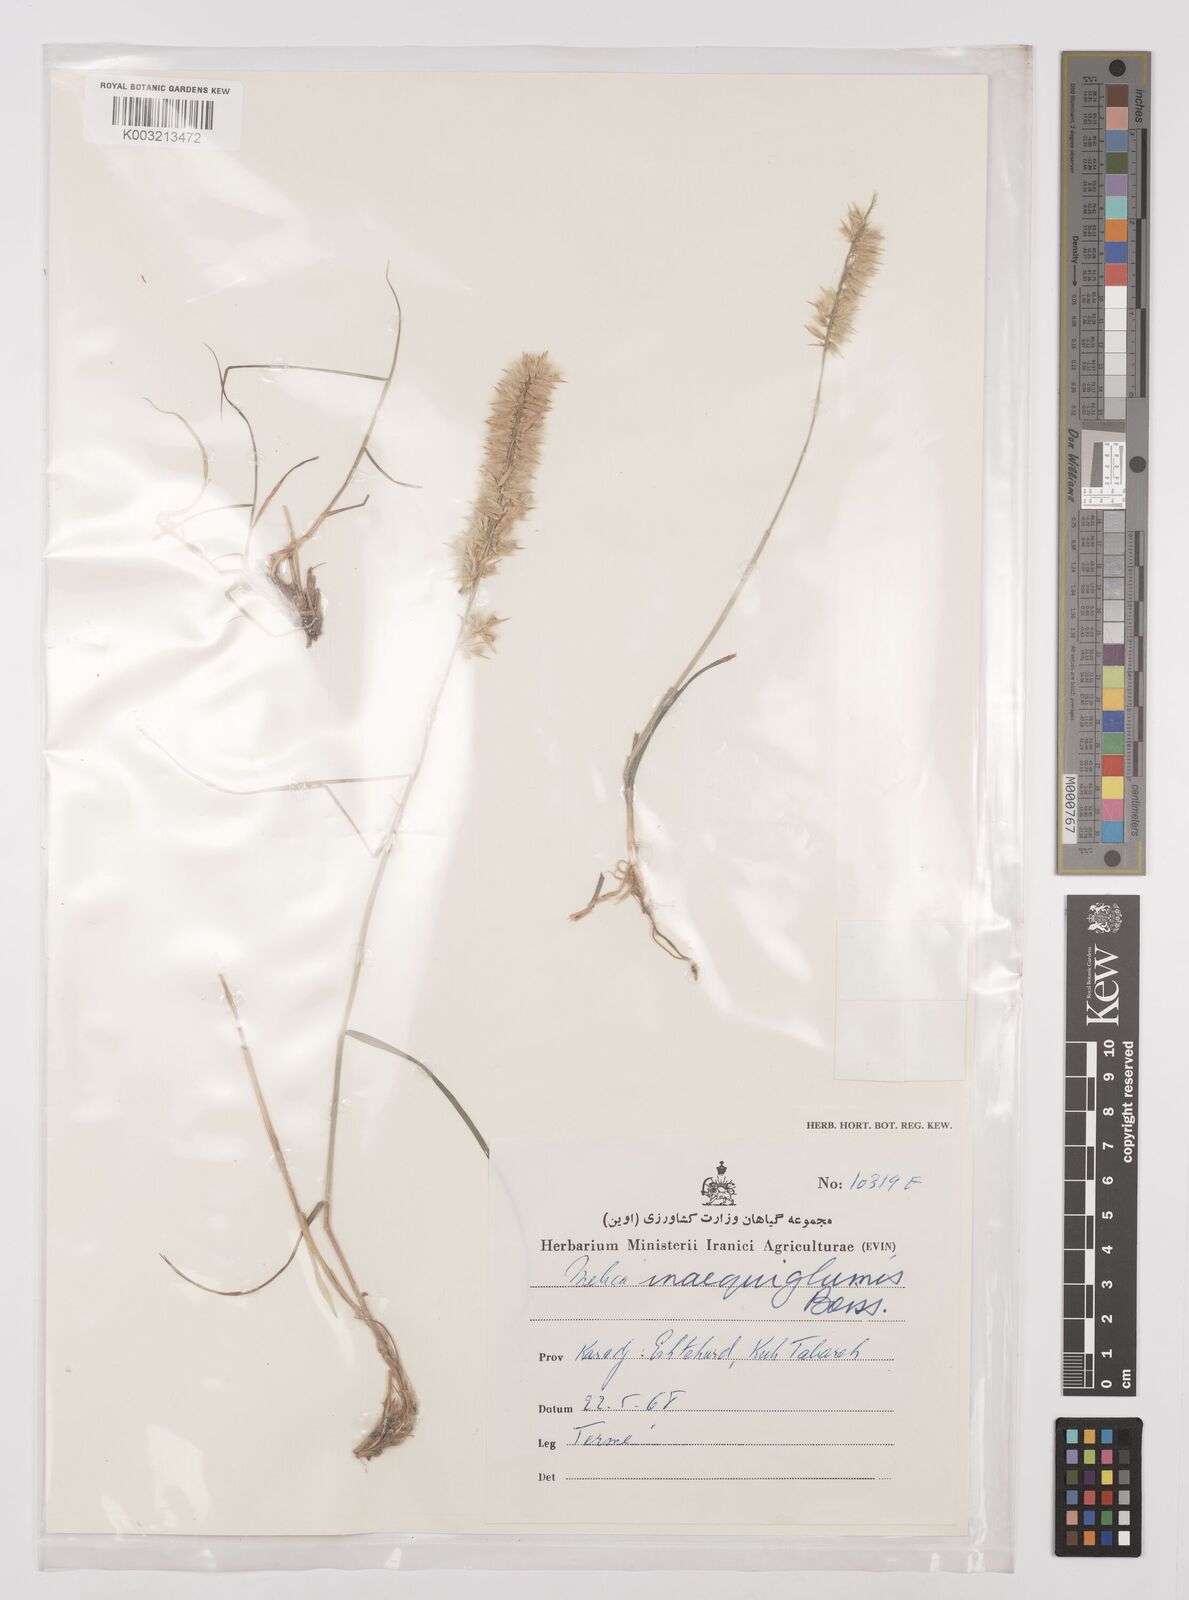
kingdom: Plantae
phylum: Tracheophyta
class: Liliopsida
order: Poales
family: Poaceae
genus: Melica
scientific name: Melica persica
